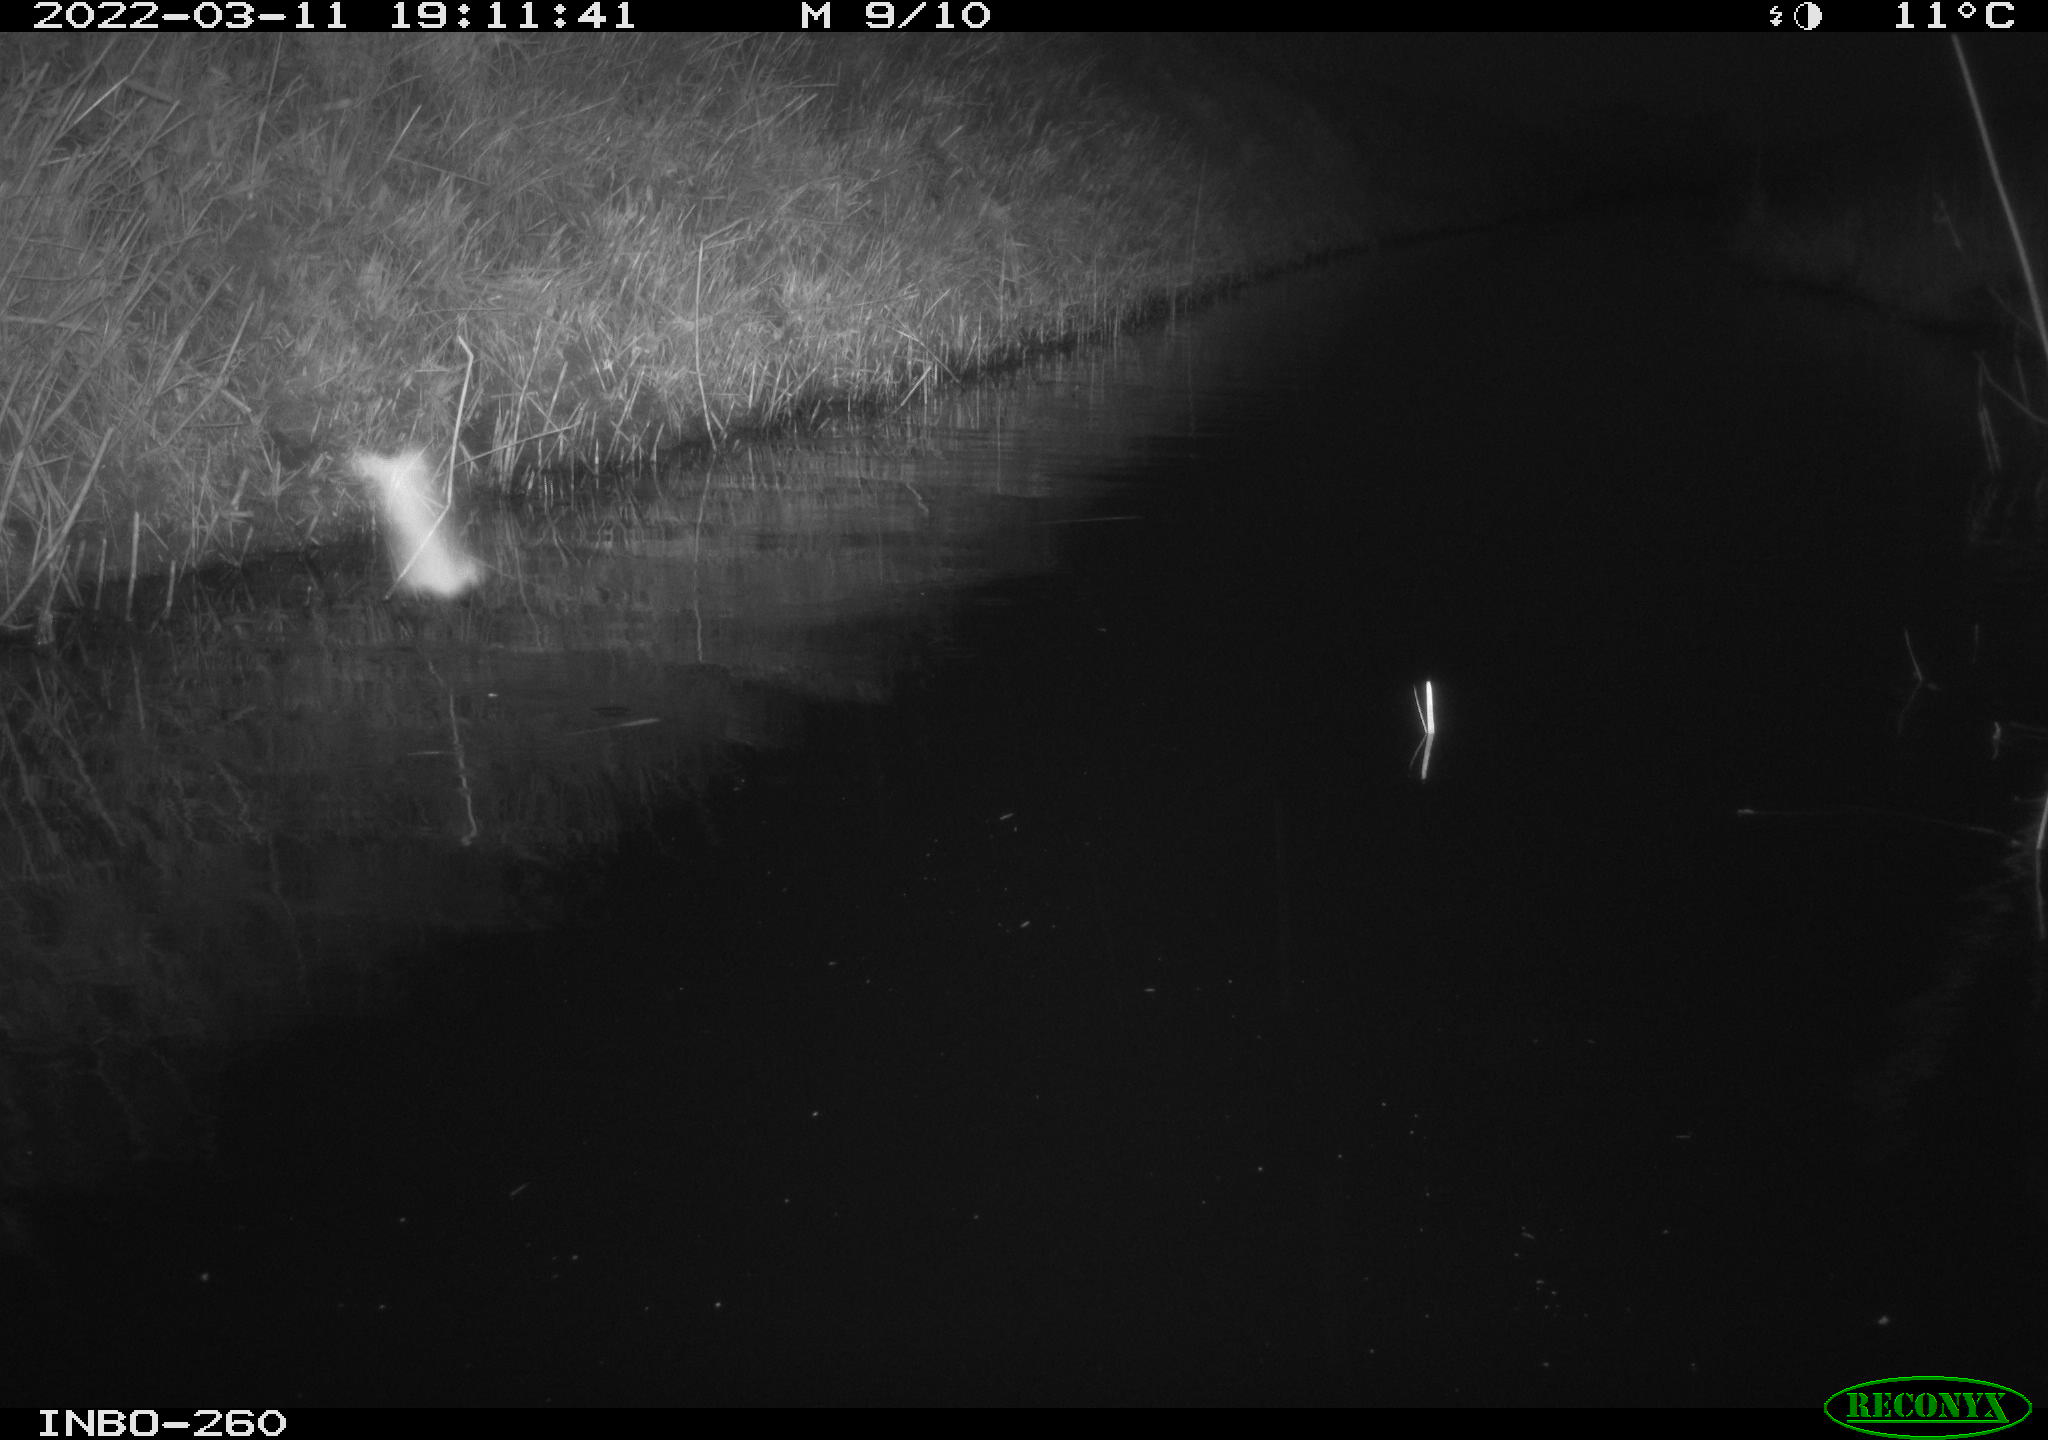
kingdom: Animalia
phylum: Chordata
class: Aves
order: Gruiformes
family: Rallidae
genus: Fulica
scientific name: Fulica atra
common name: Eurasian coot
